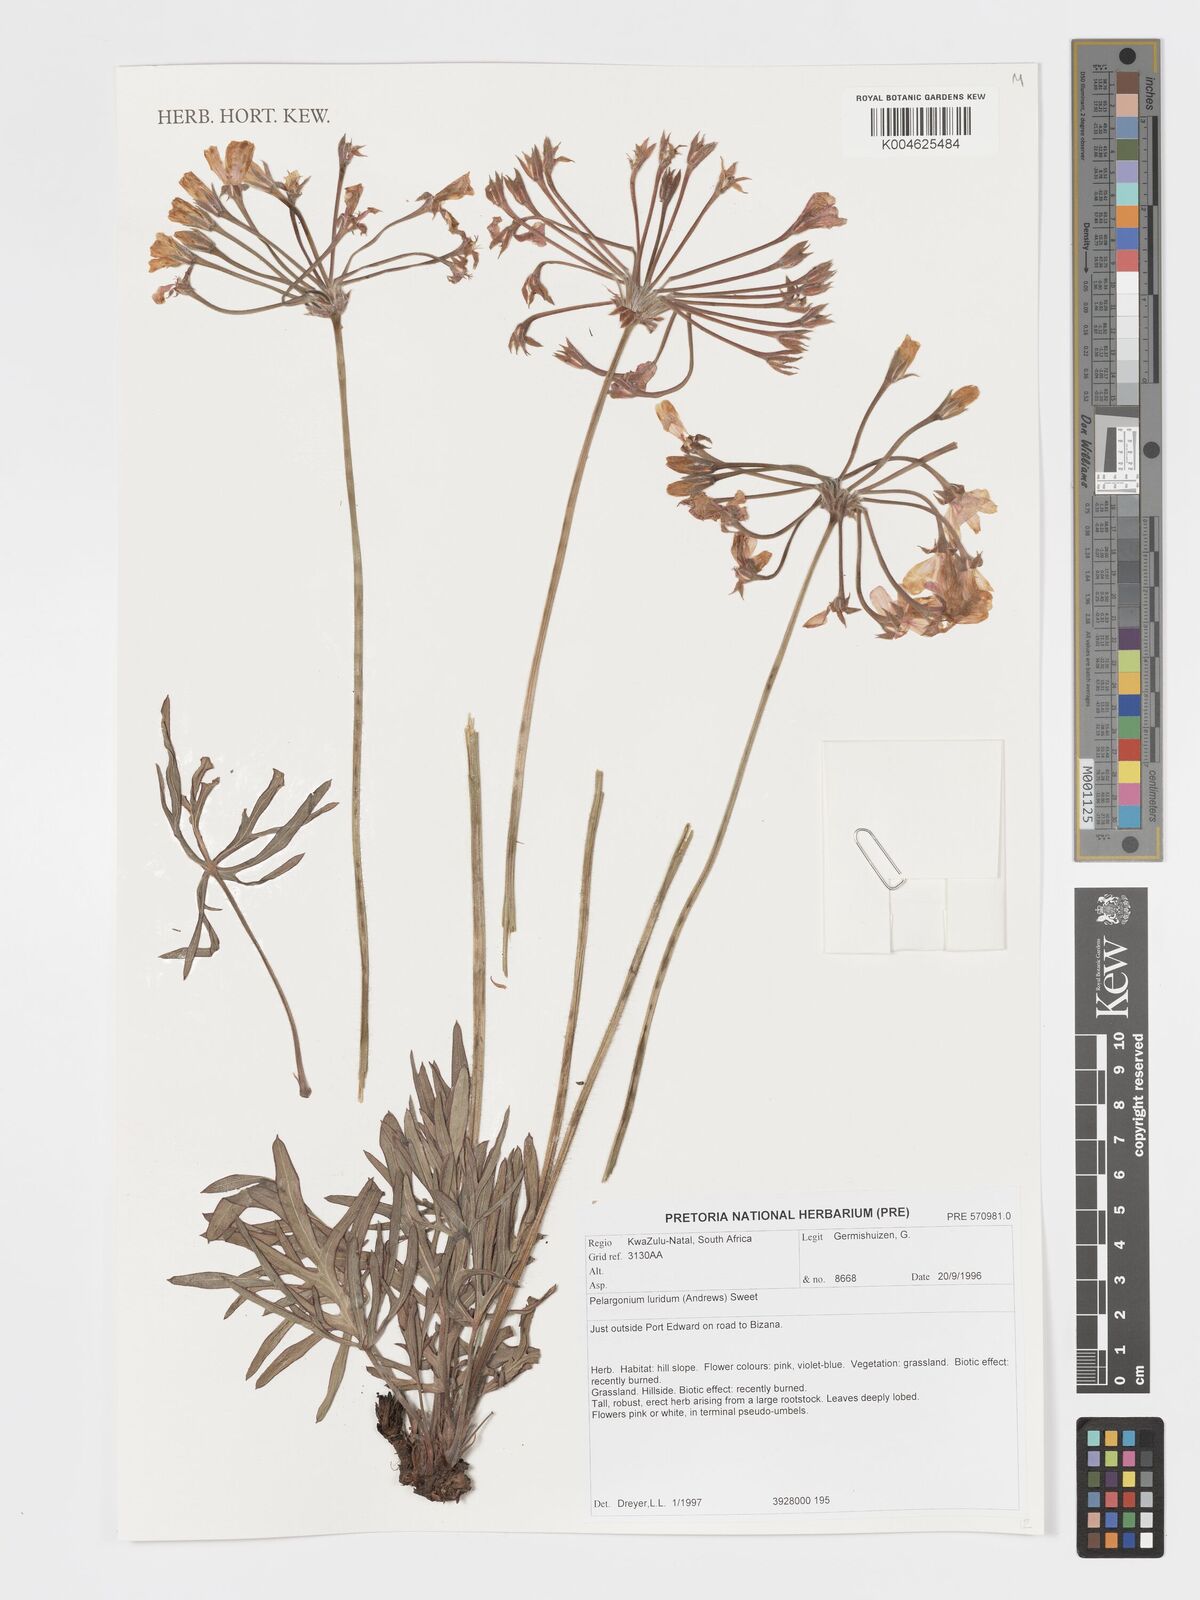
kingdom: Plantae
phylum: Tracheophyta
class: Magnoliopsida
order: Geraniales
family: Geraniaceae
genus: Pelargonium
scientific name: Pelargonium luridum
